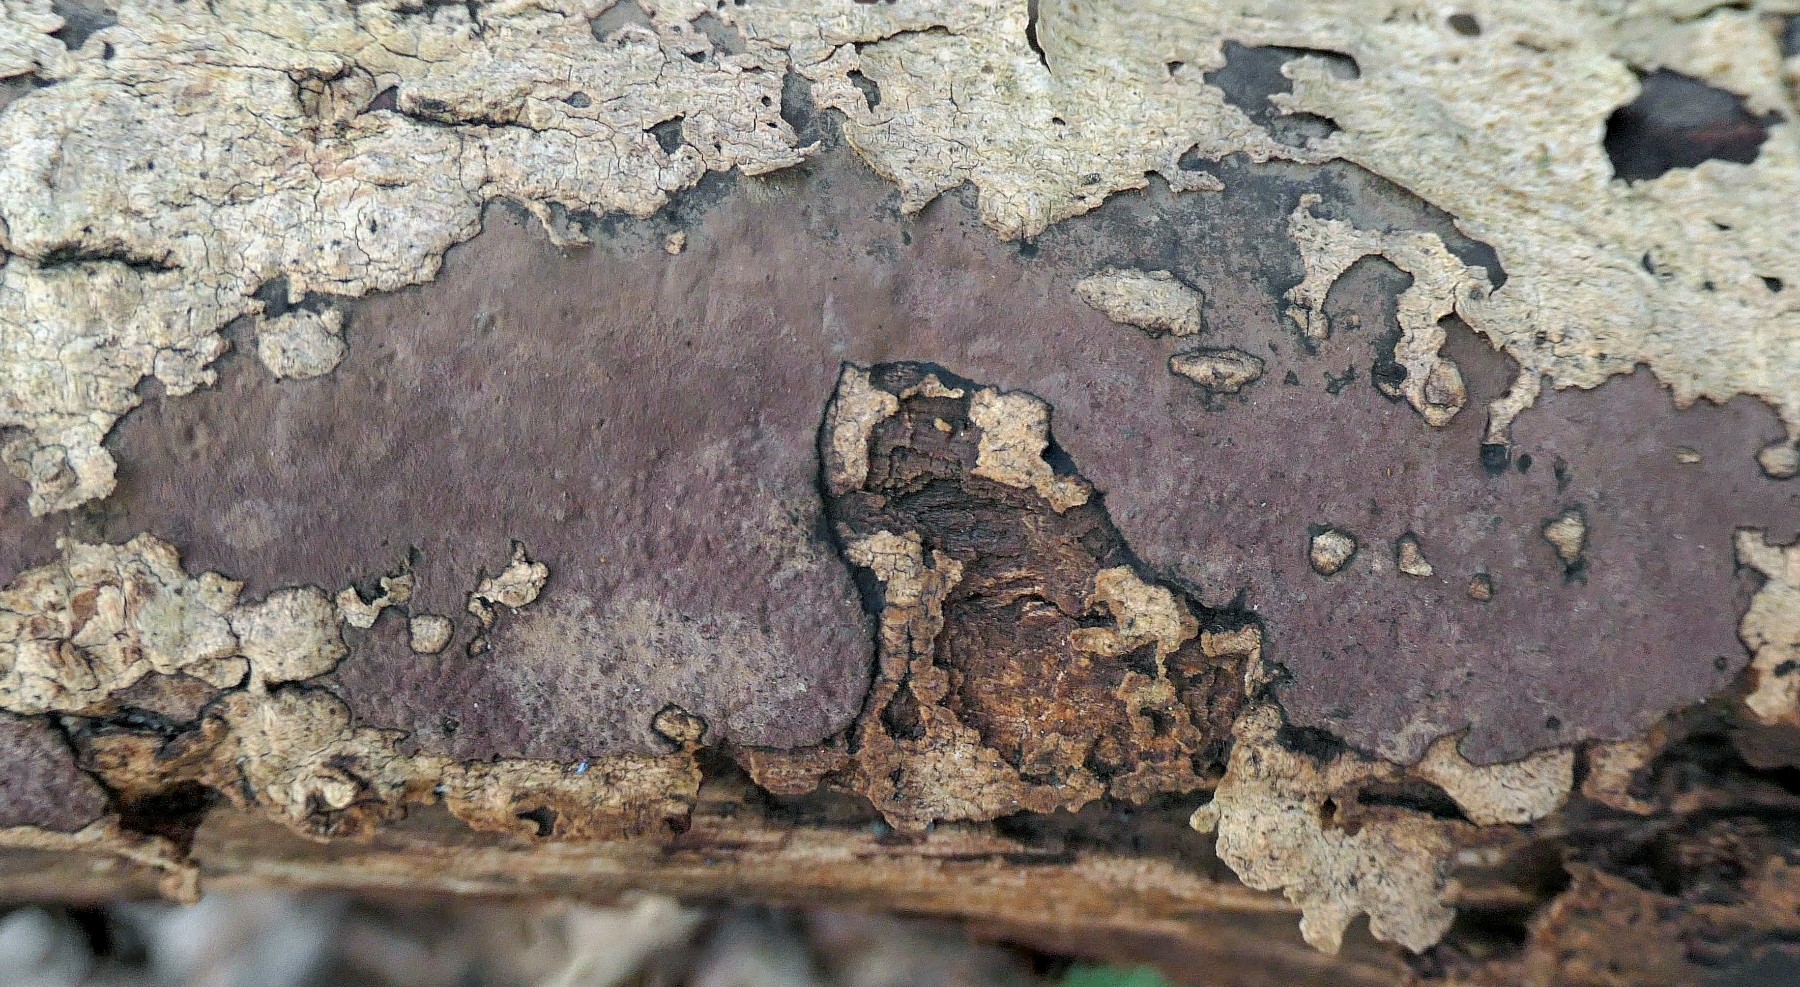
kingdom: Fungi
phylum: Ascomycota
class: Sordariomycetes
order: Xylariales
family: Hypoxylaceae
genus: Hypoxylon
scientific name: Hypoxylon petriniae
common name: nedsænket kulbær
